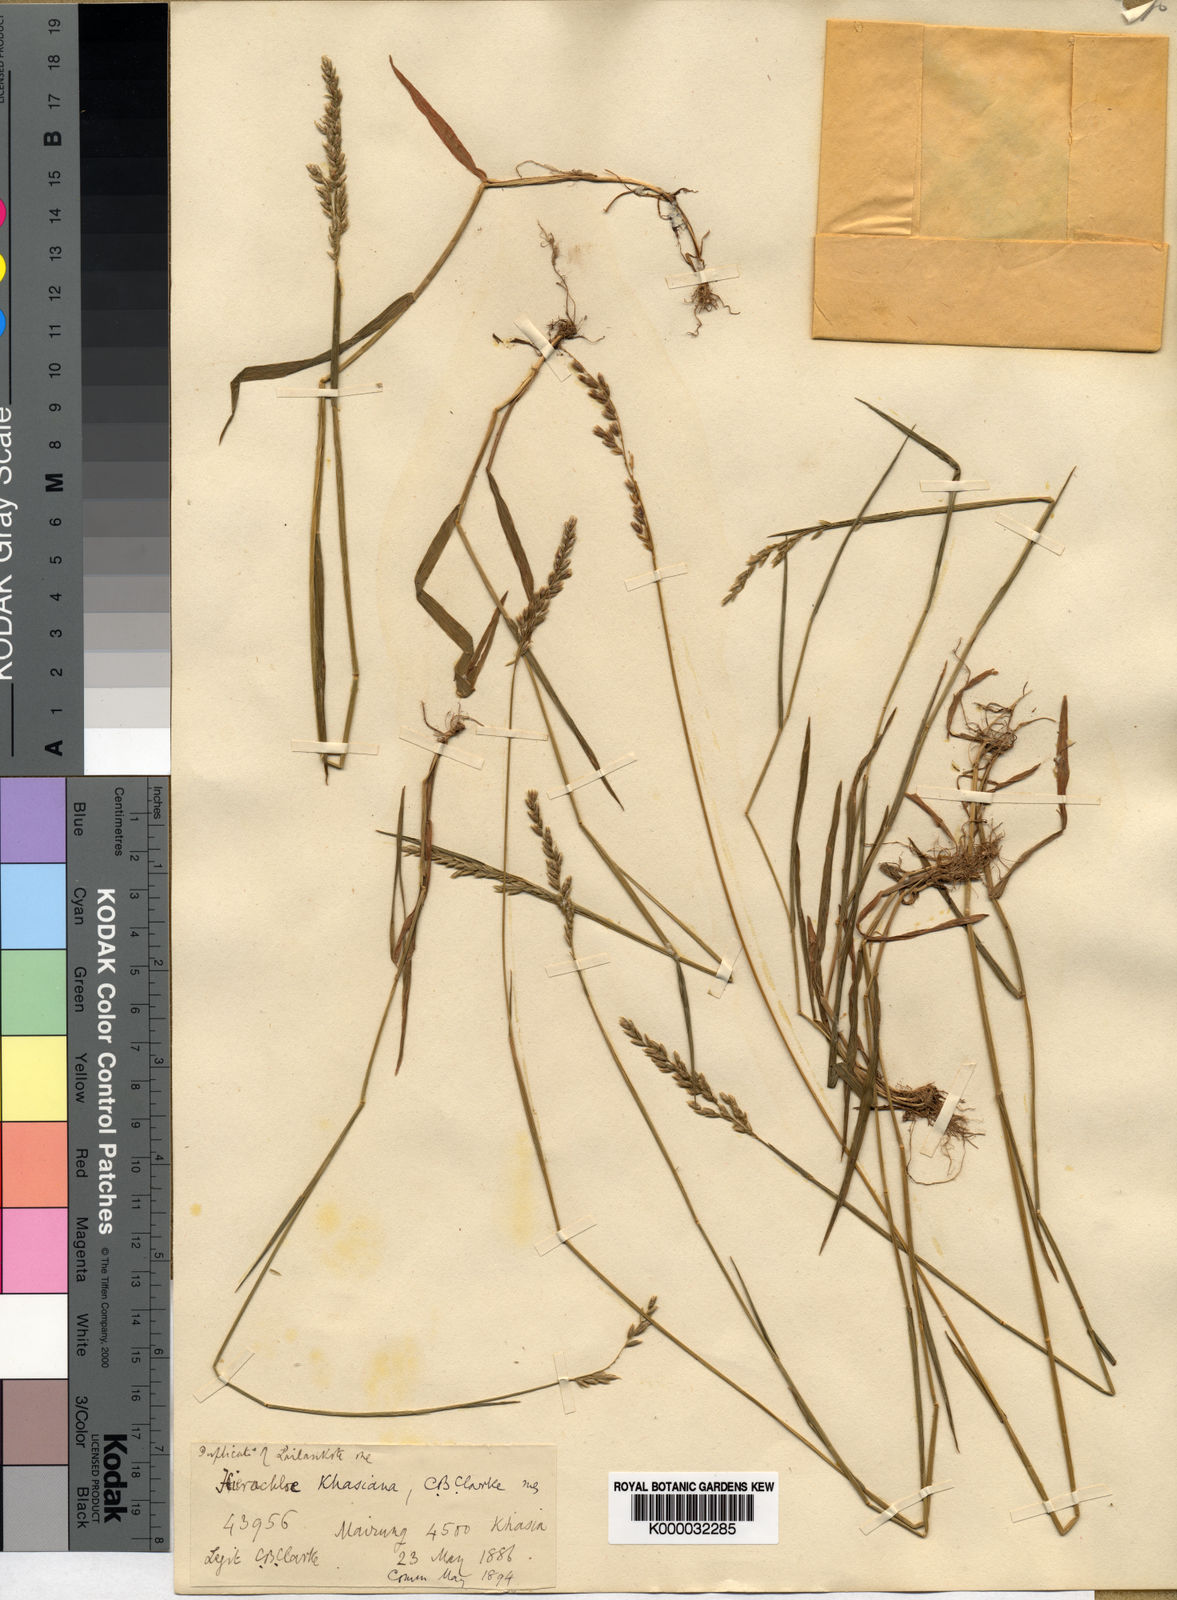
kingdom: Plantae
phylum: Tracheophyta
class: Liliopsida
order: Poales
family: Poaceae
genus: Hierochloe
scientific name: Hierochloe
